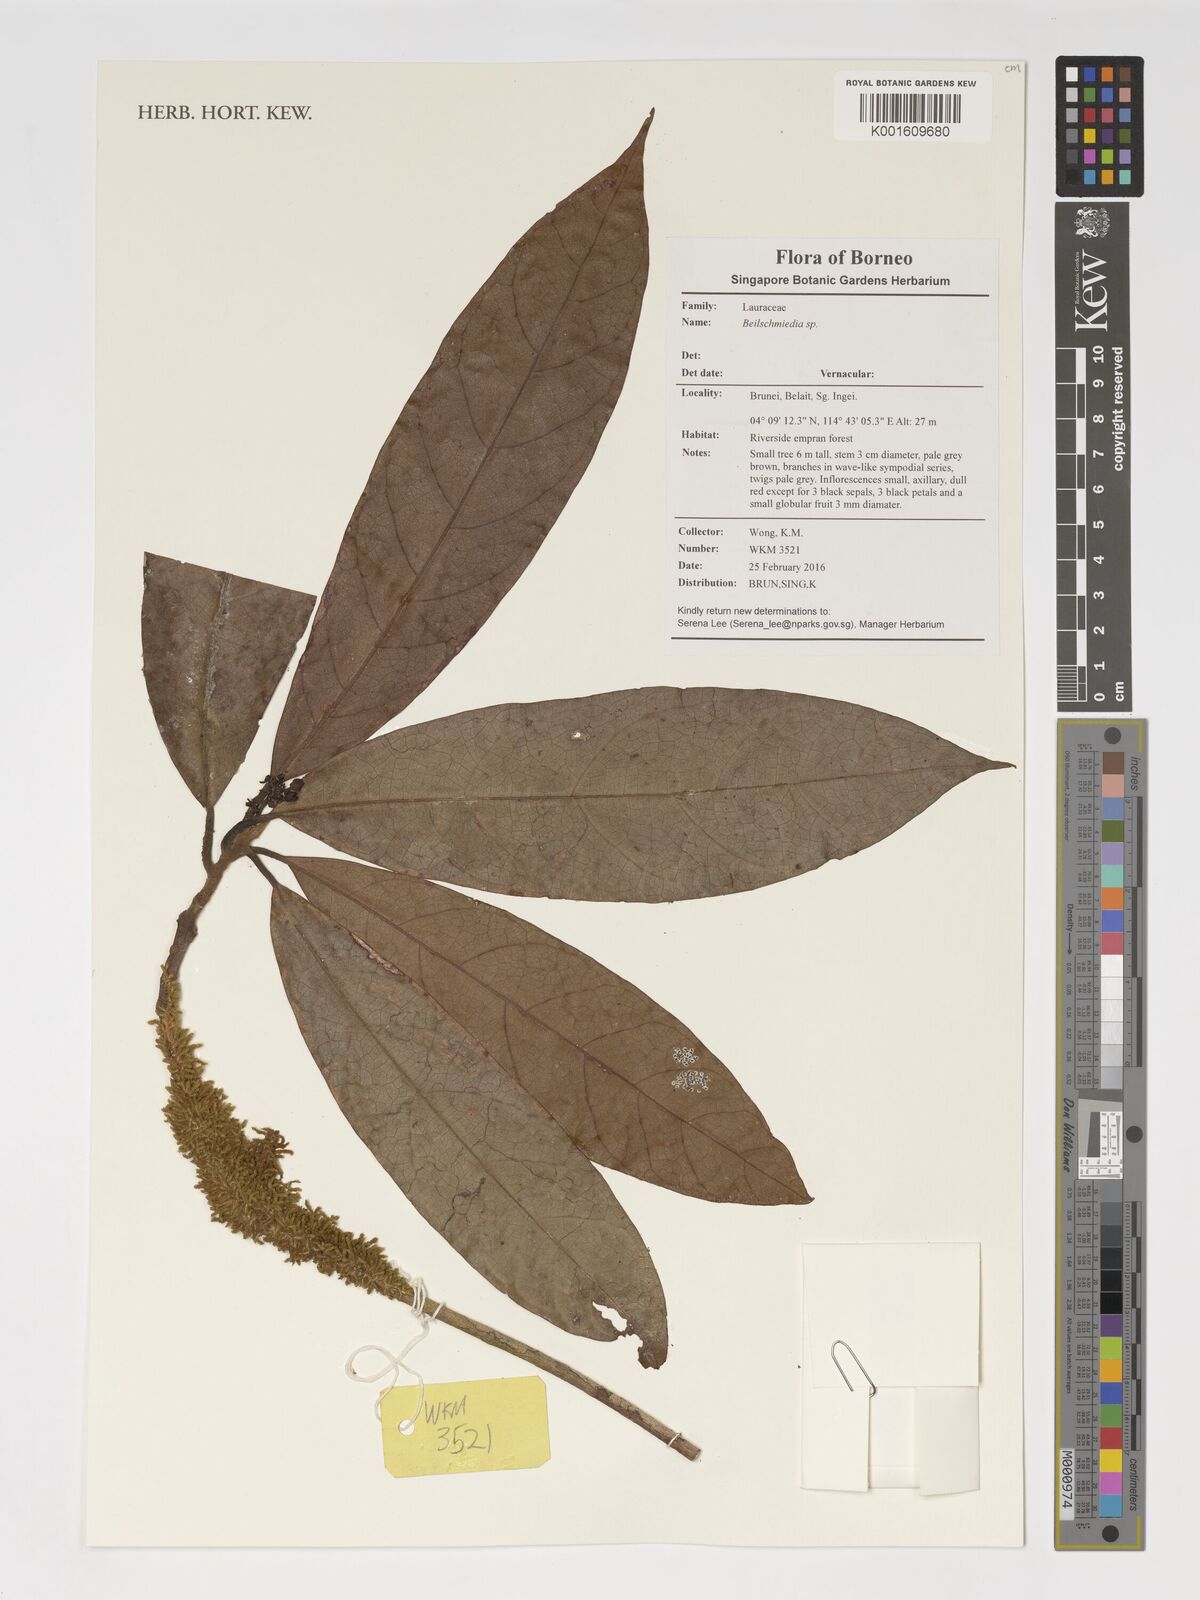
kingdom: Plantae
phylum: Tracheophyta
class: Magnoliopsida
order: Laurales
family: Lauraceae
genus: Beilschmiedia
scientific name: Beilschmiedia
